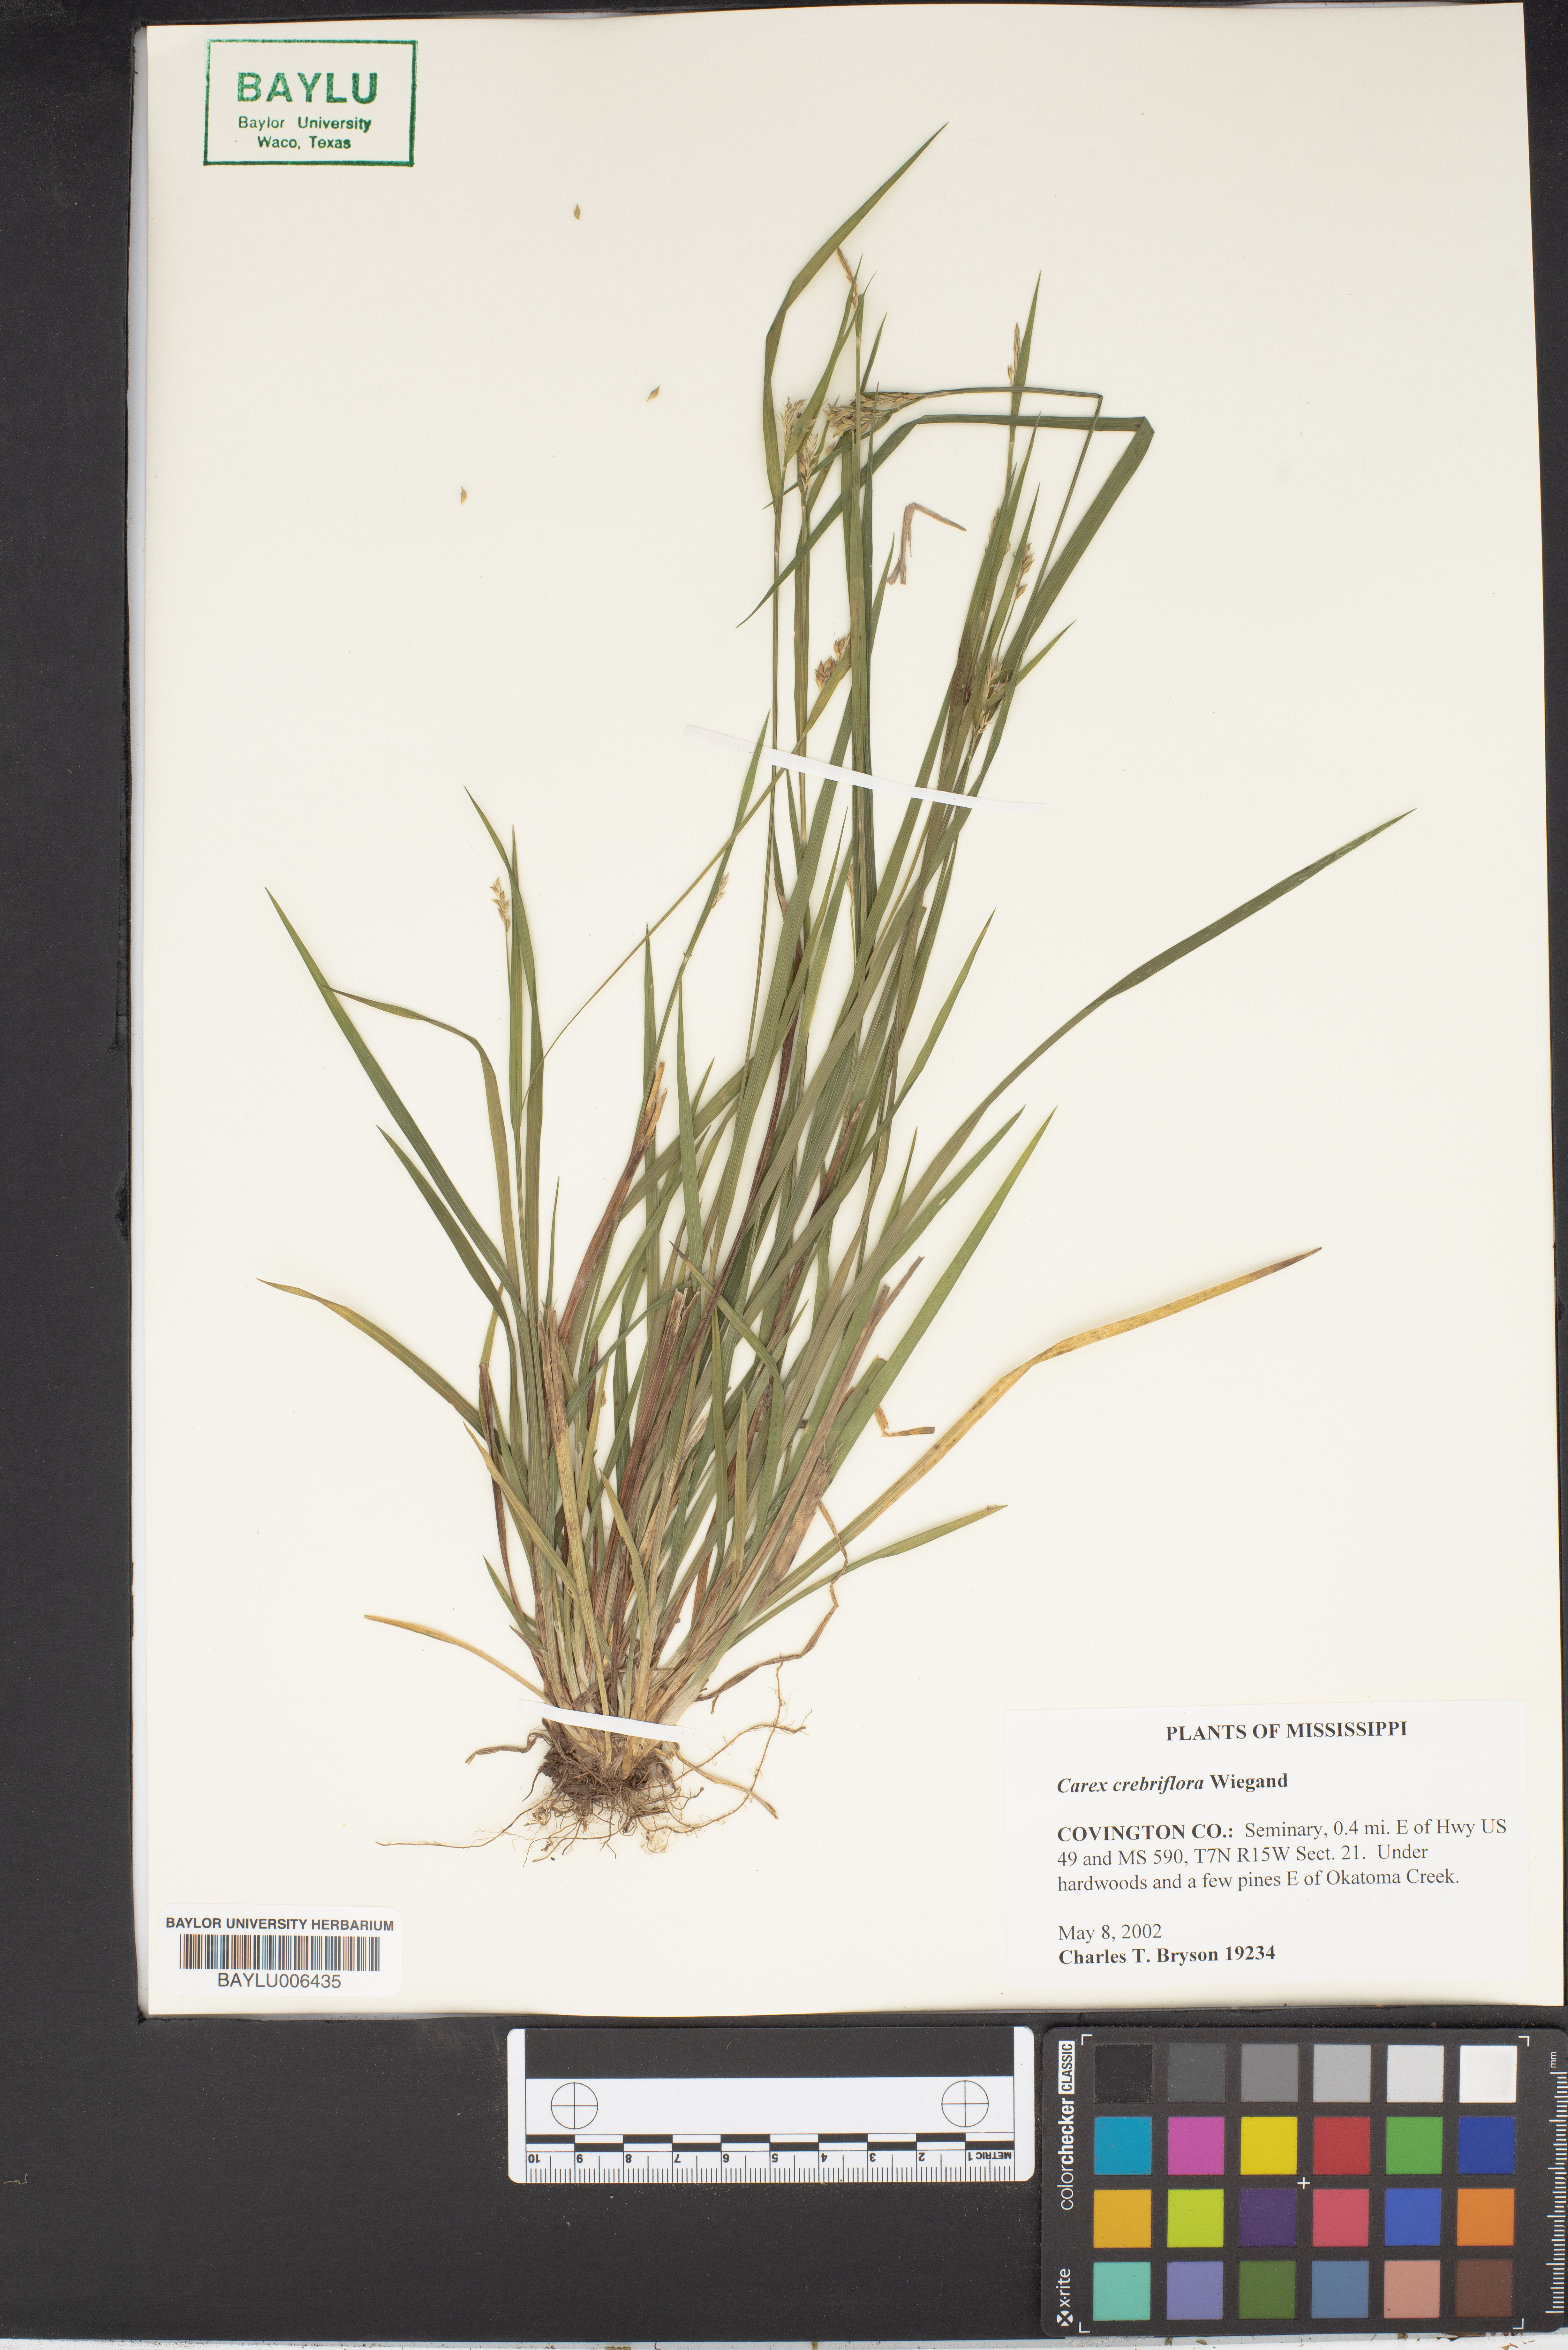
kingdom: Plantae
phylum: Tracheophyta
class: Liliopsida
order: Poales
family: Cyperaceae
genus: Carex
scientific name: Carex crebriflora
